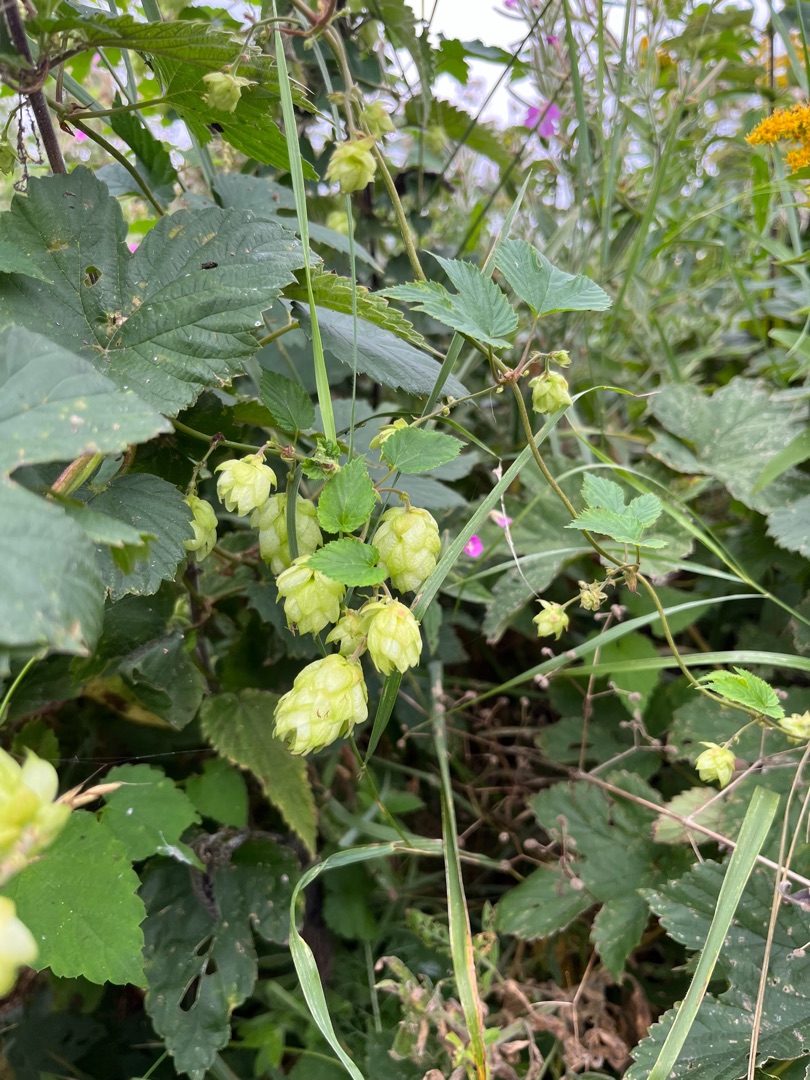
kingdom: Plantae
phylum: Tracheophyta
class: Magnoliopsida
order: Rosales
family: Cannabaceae
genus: Humulus
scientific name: Humulus lupulus
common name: Humle
